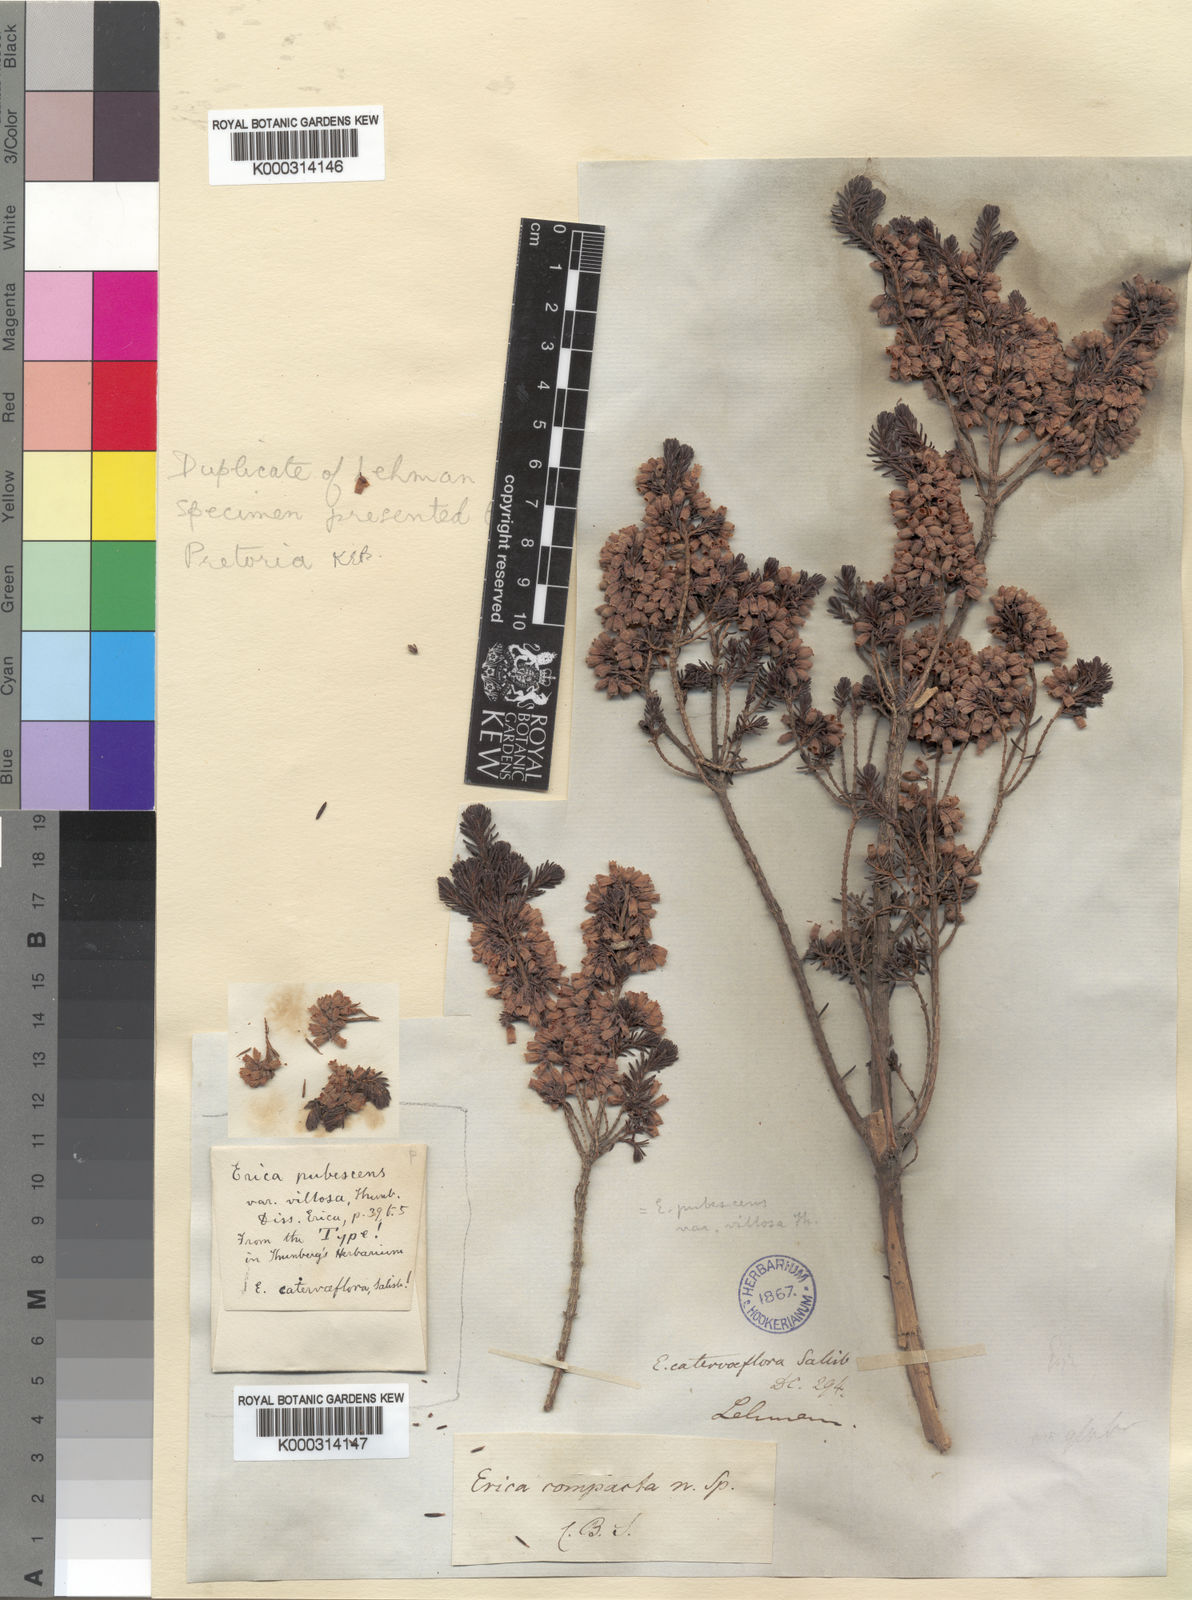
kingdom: Plantae
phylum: Tracheophyta
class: Magnoliopsida
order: Ericales
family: Ericaceae
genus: Erica
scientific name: Erica caterviflora
